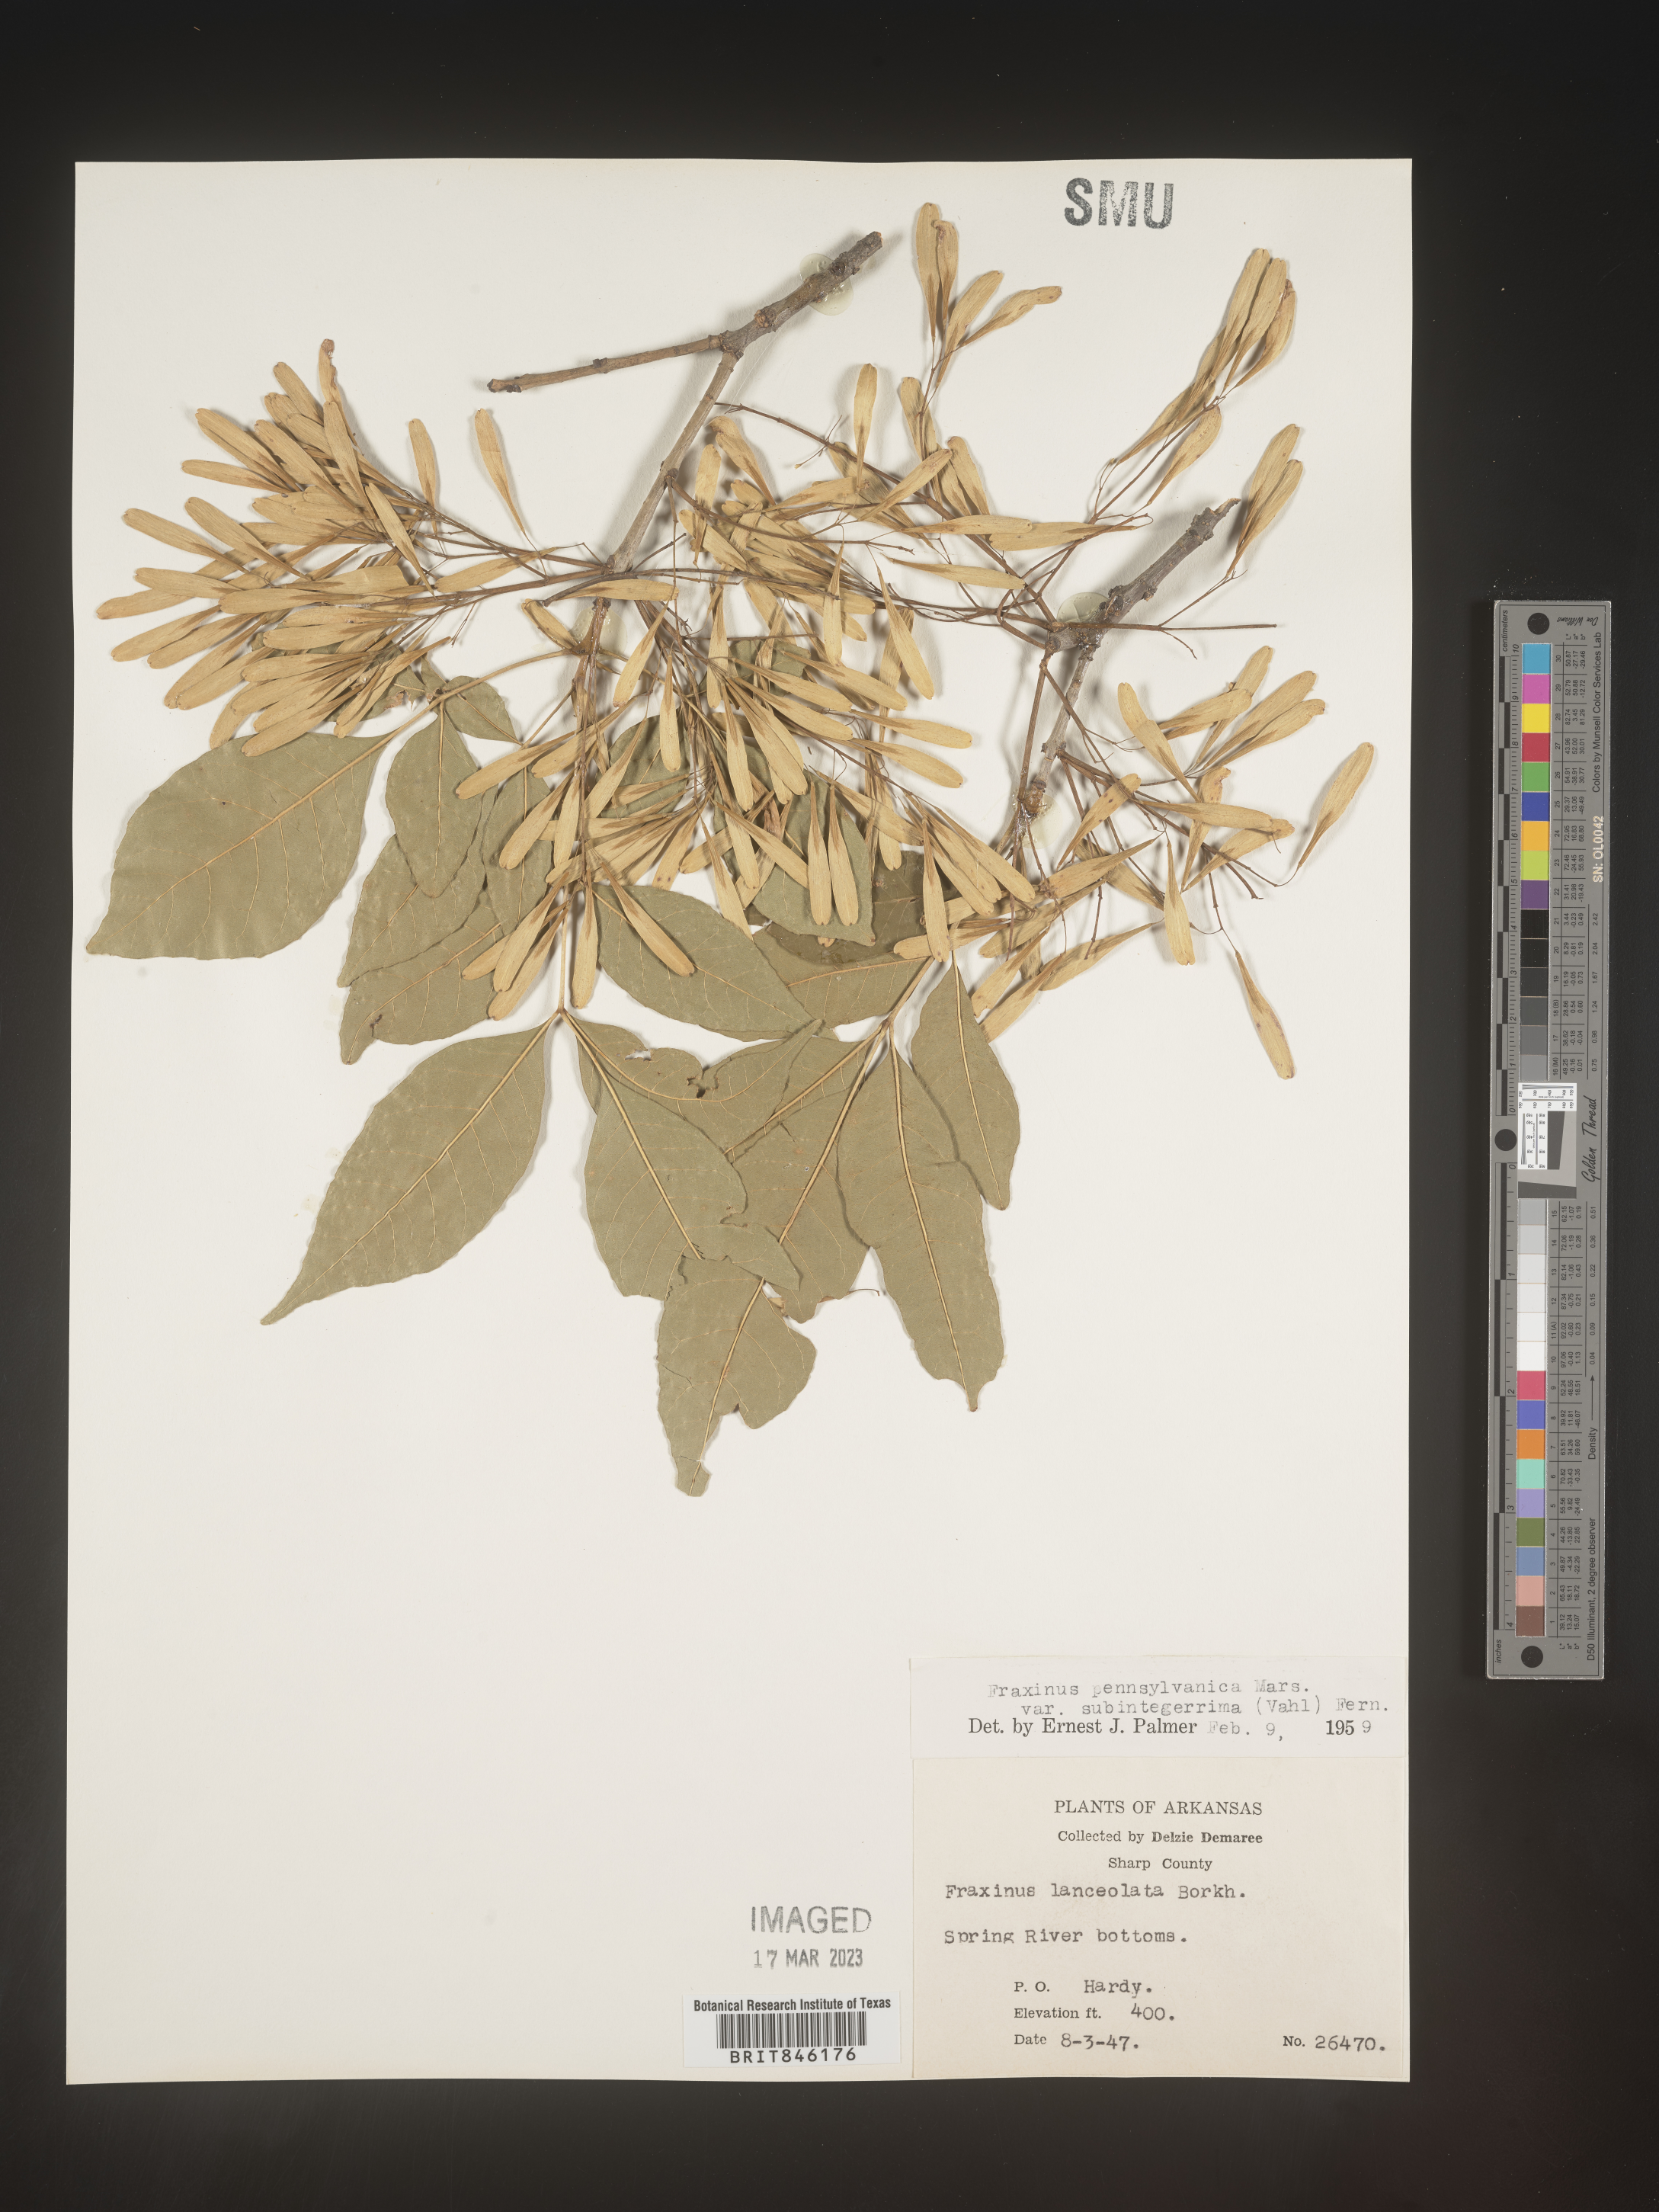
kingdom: Plantae
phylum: Tracheophyta
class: Magnoliopsida
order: Lamiales
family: Oleaceae
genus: Fraxinus
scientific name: Fraxinus pennsylvanica
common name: Green ash
